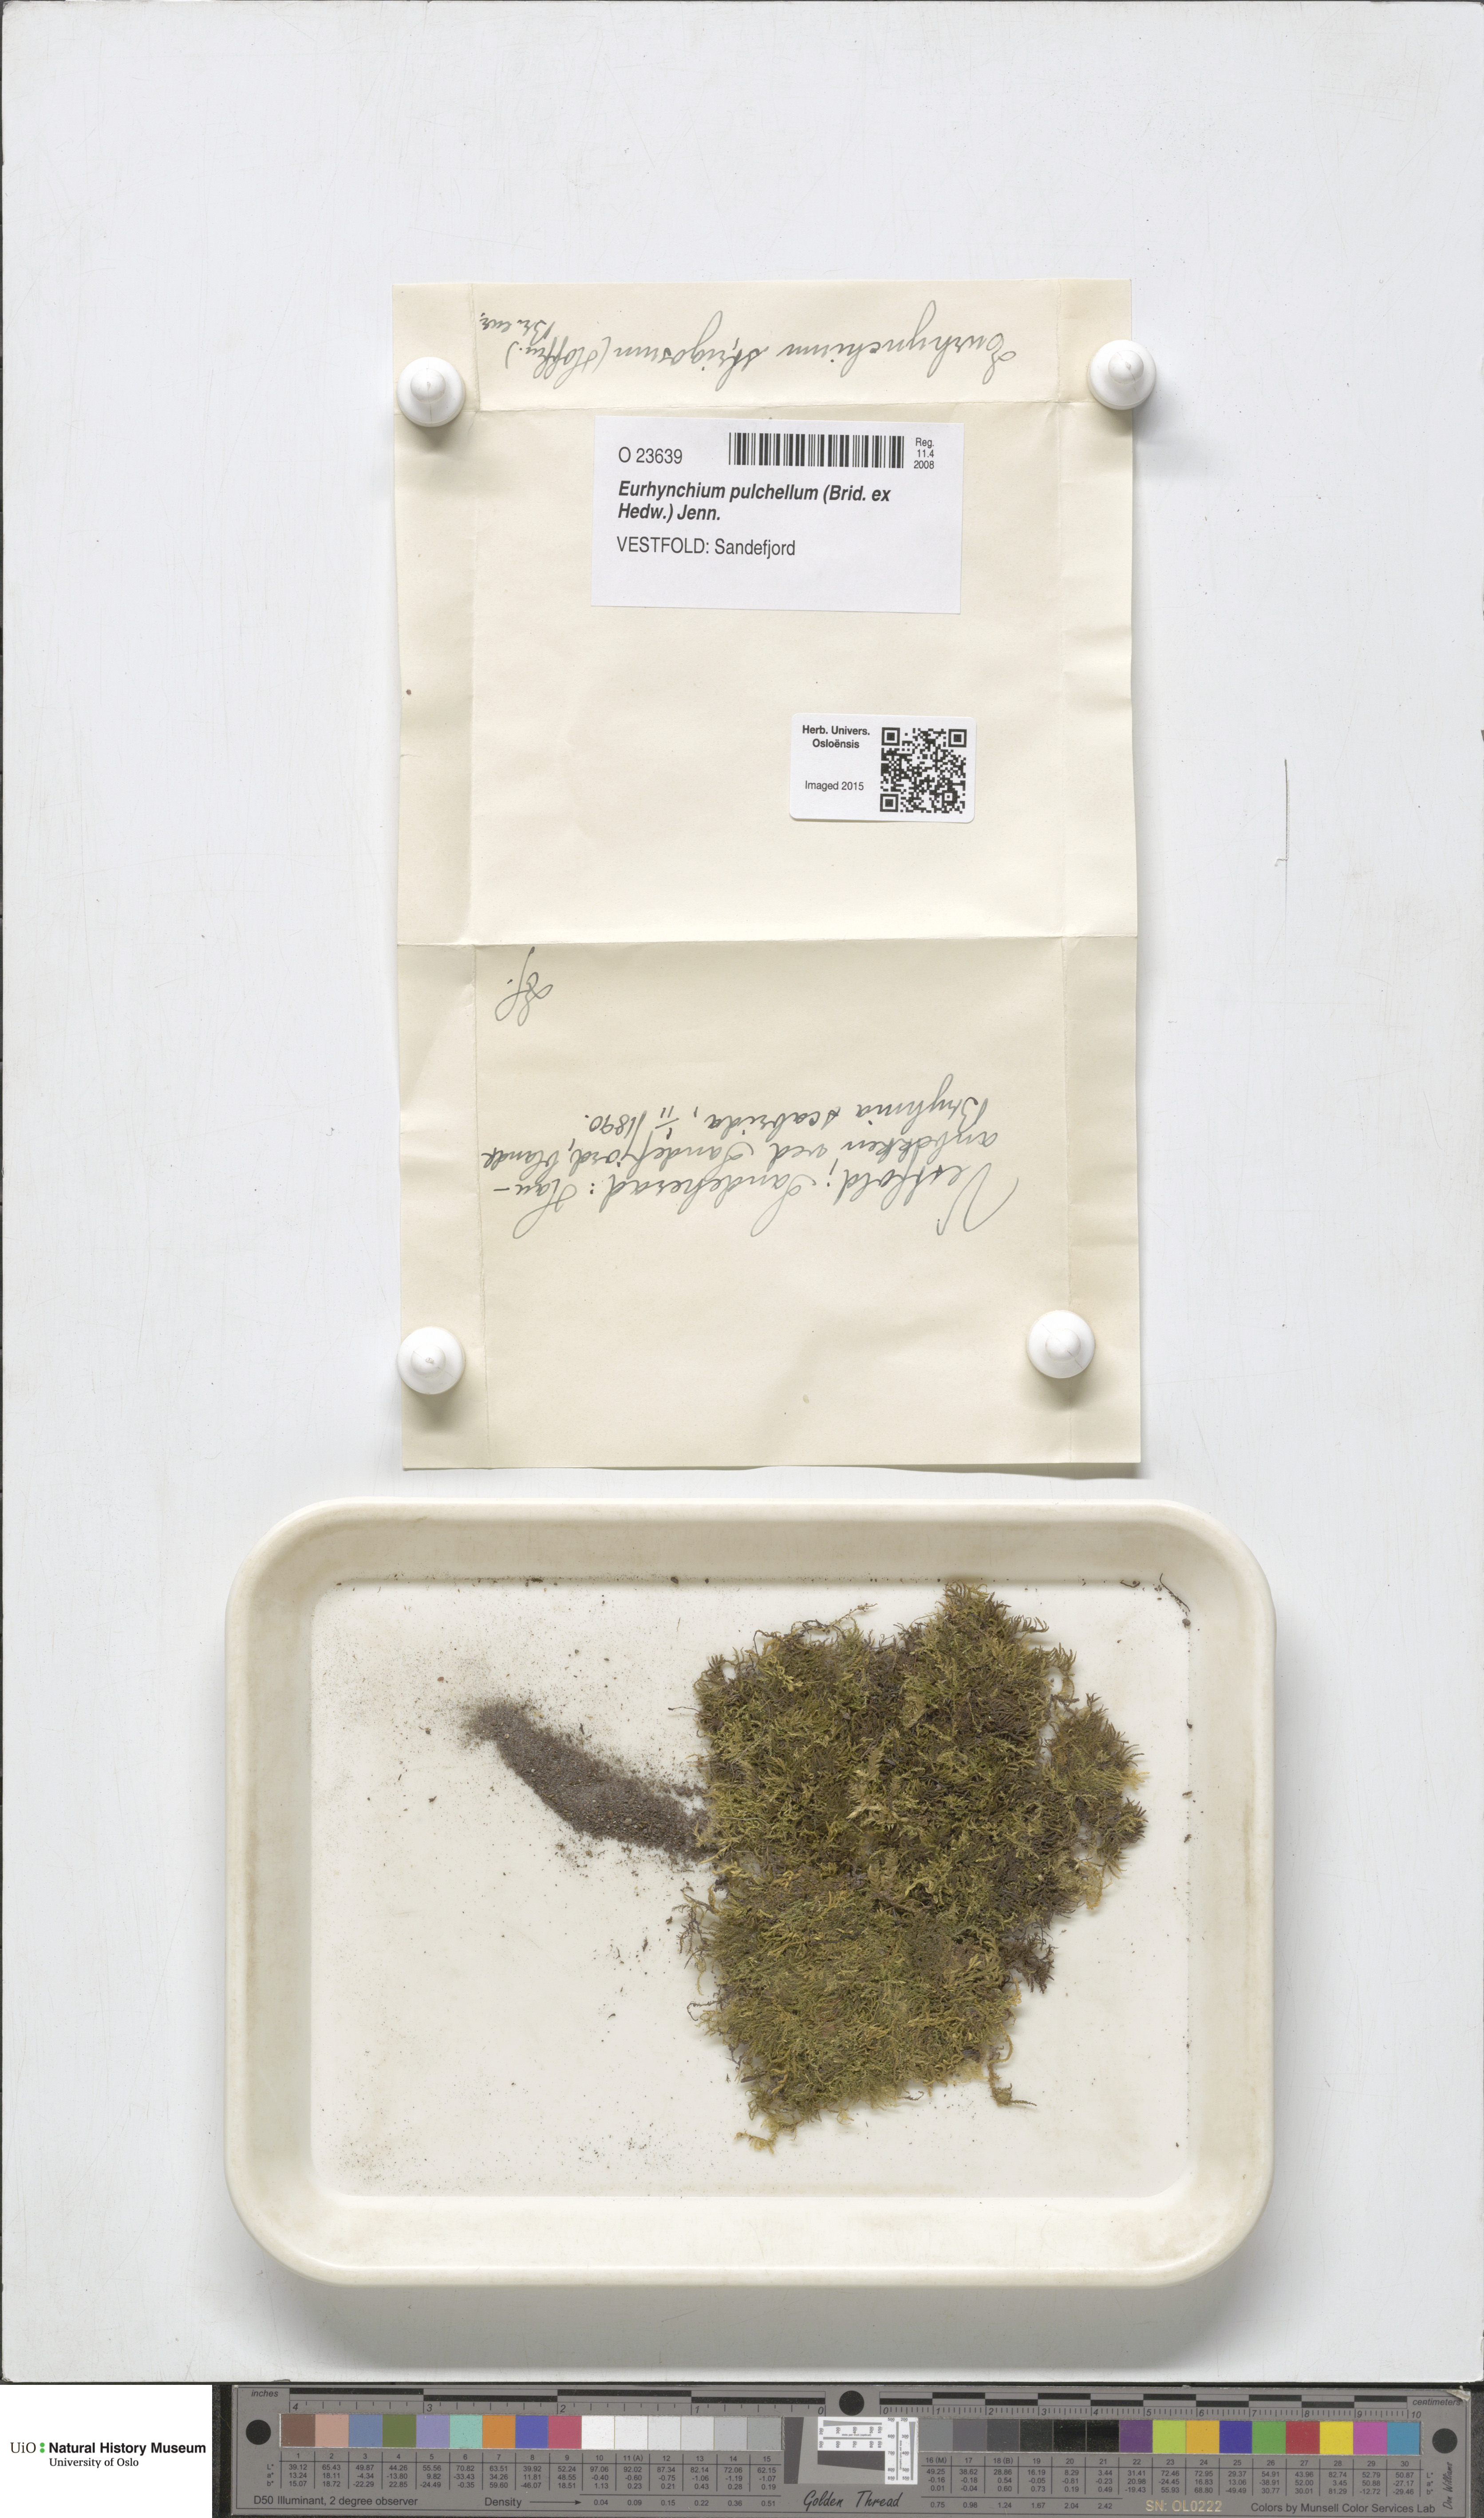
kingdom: Plantae
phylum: Bryophyta
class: Bryopsida
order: Hypnales
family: Brachytheciaceae
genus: Eurhynchiastrum
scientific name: Eurhynchiastrum pulchellum
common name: Elegant beaked moss
